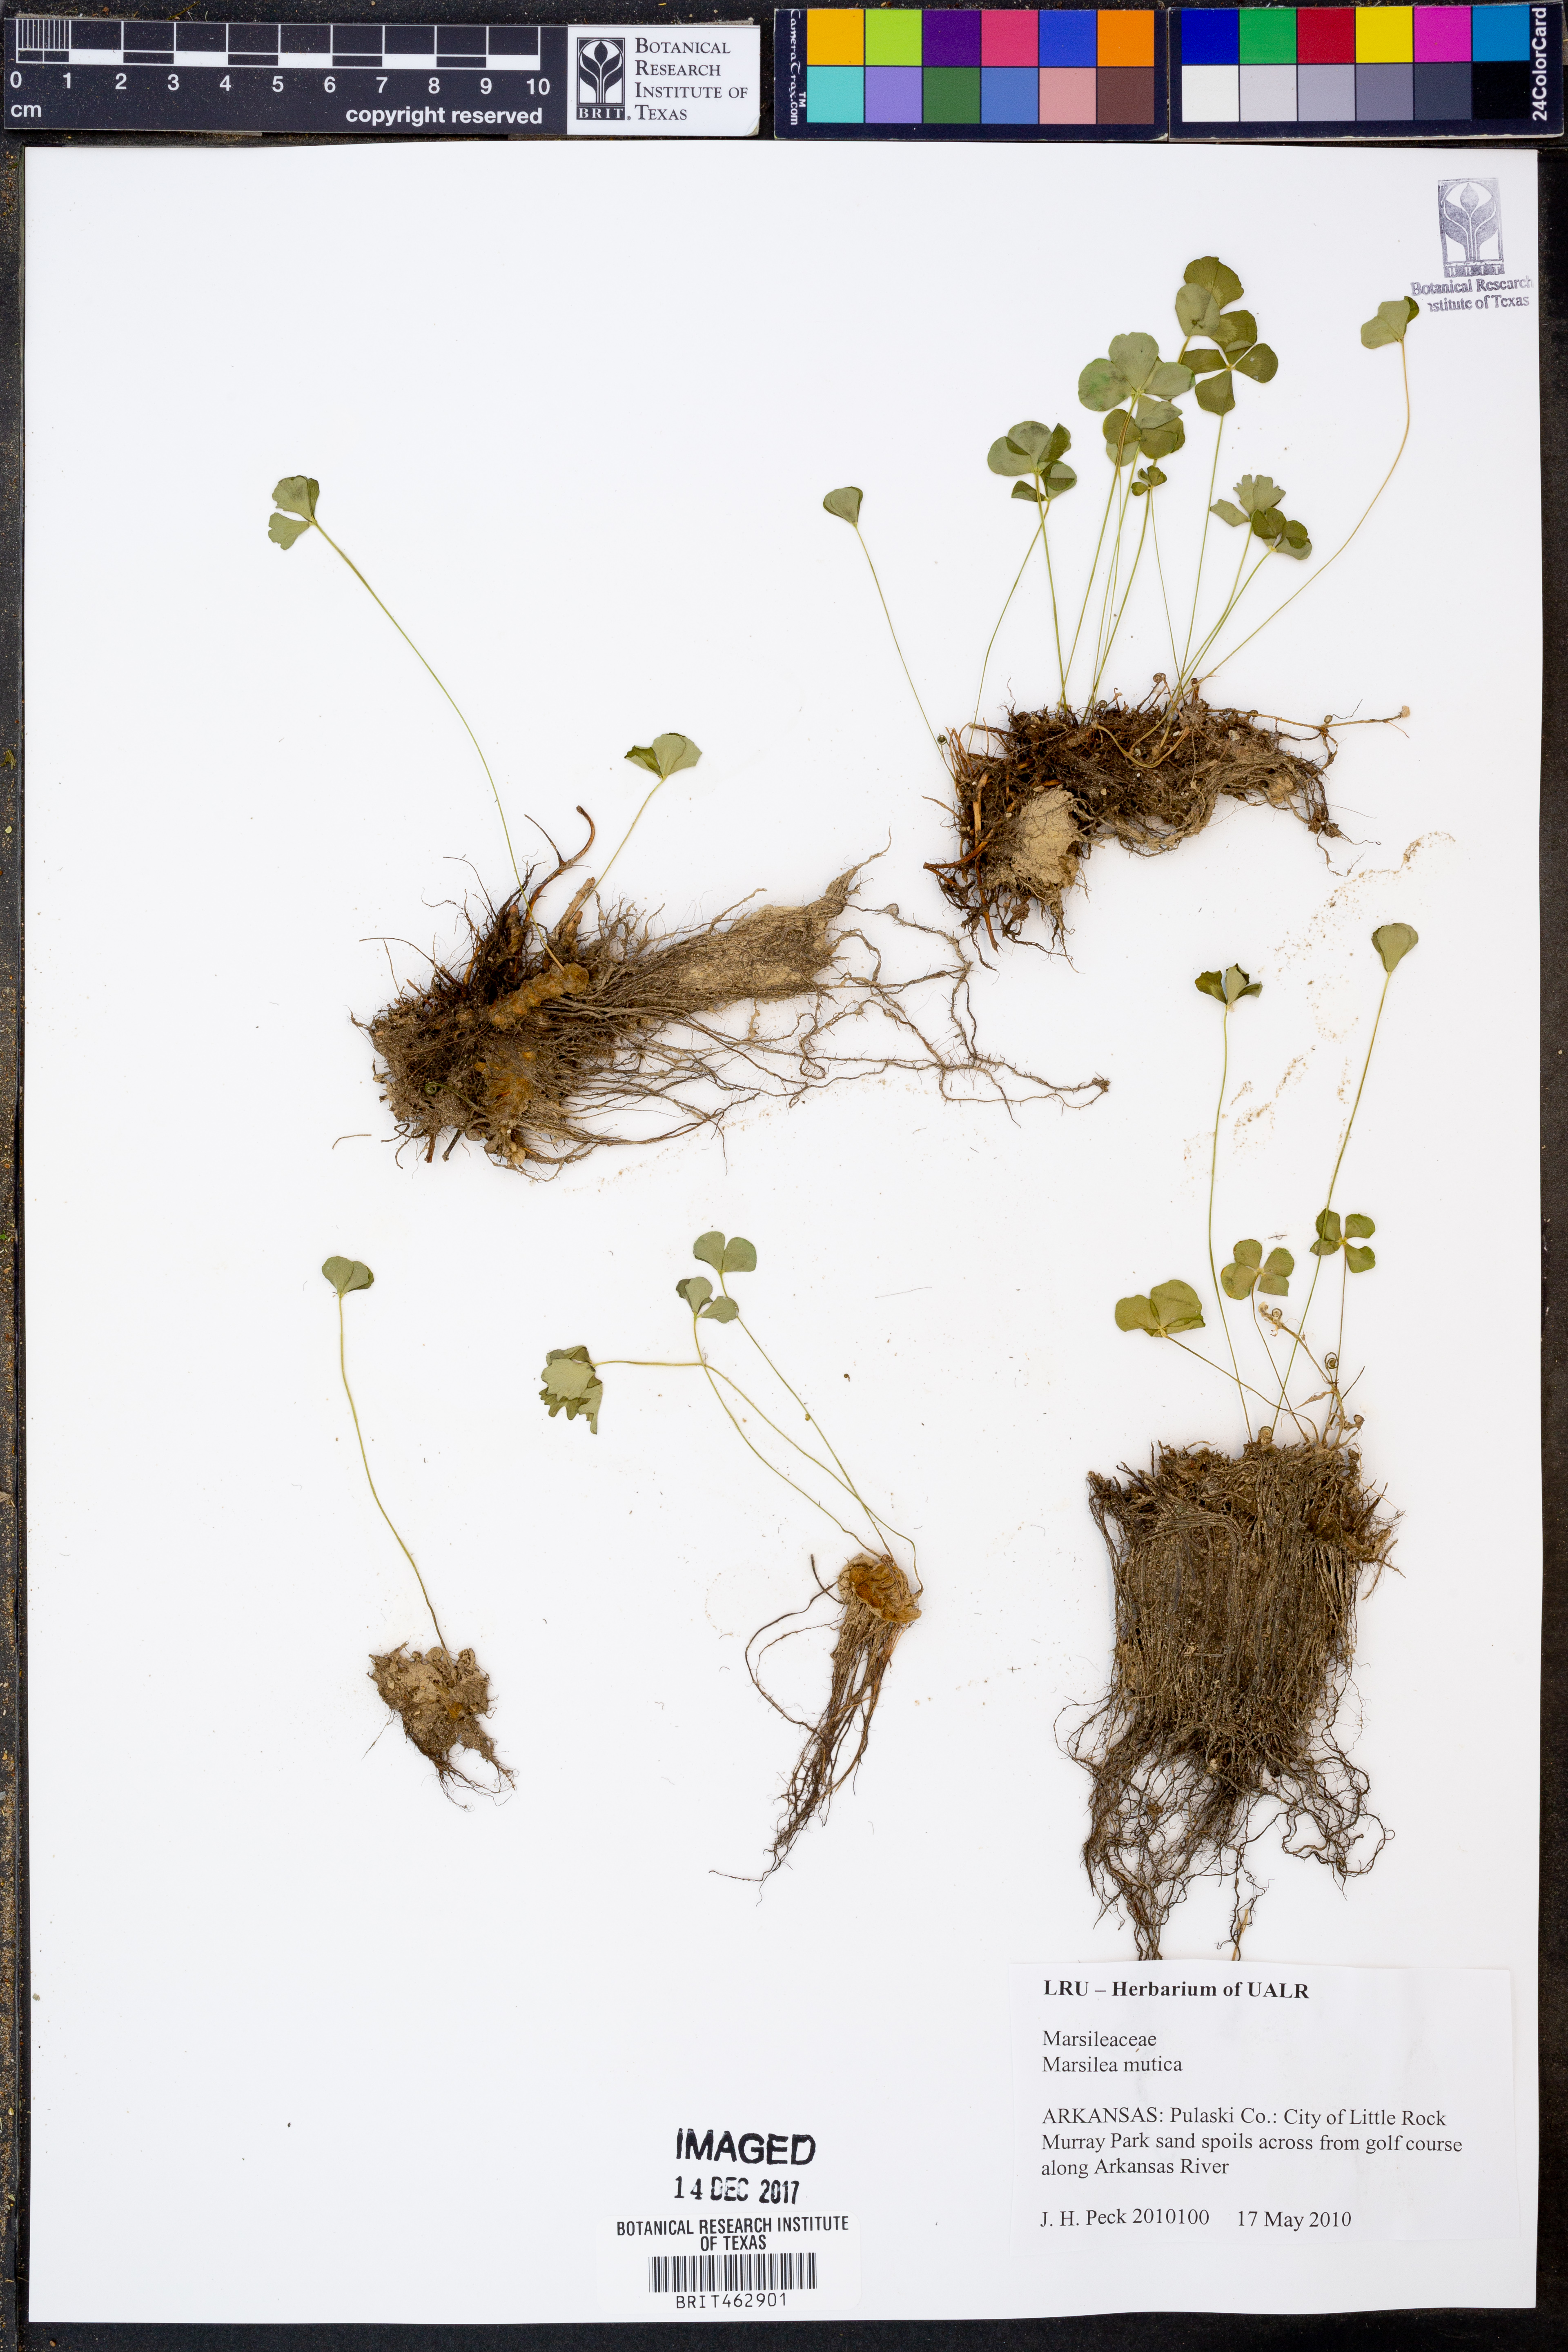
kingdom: Plantae
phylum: Tracheophyta
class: Polypodiopsida
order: Salviniales
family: Marsileaceae
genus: Marsilea
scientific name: Marsilea mutica
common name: Australian water-clover
